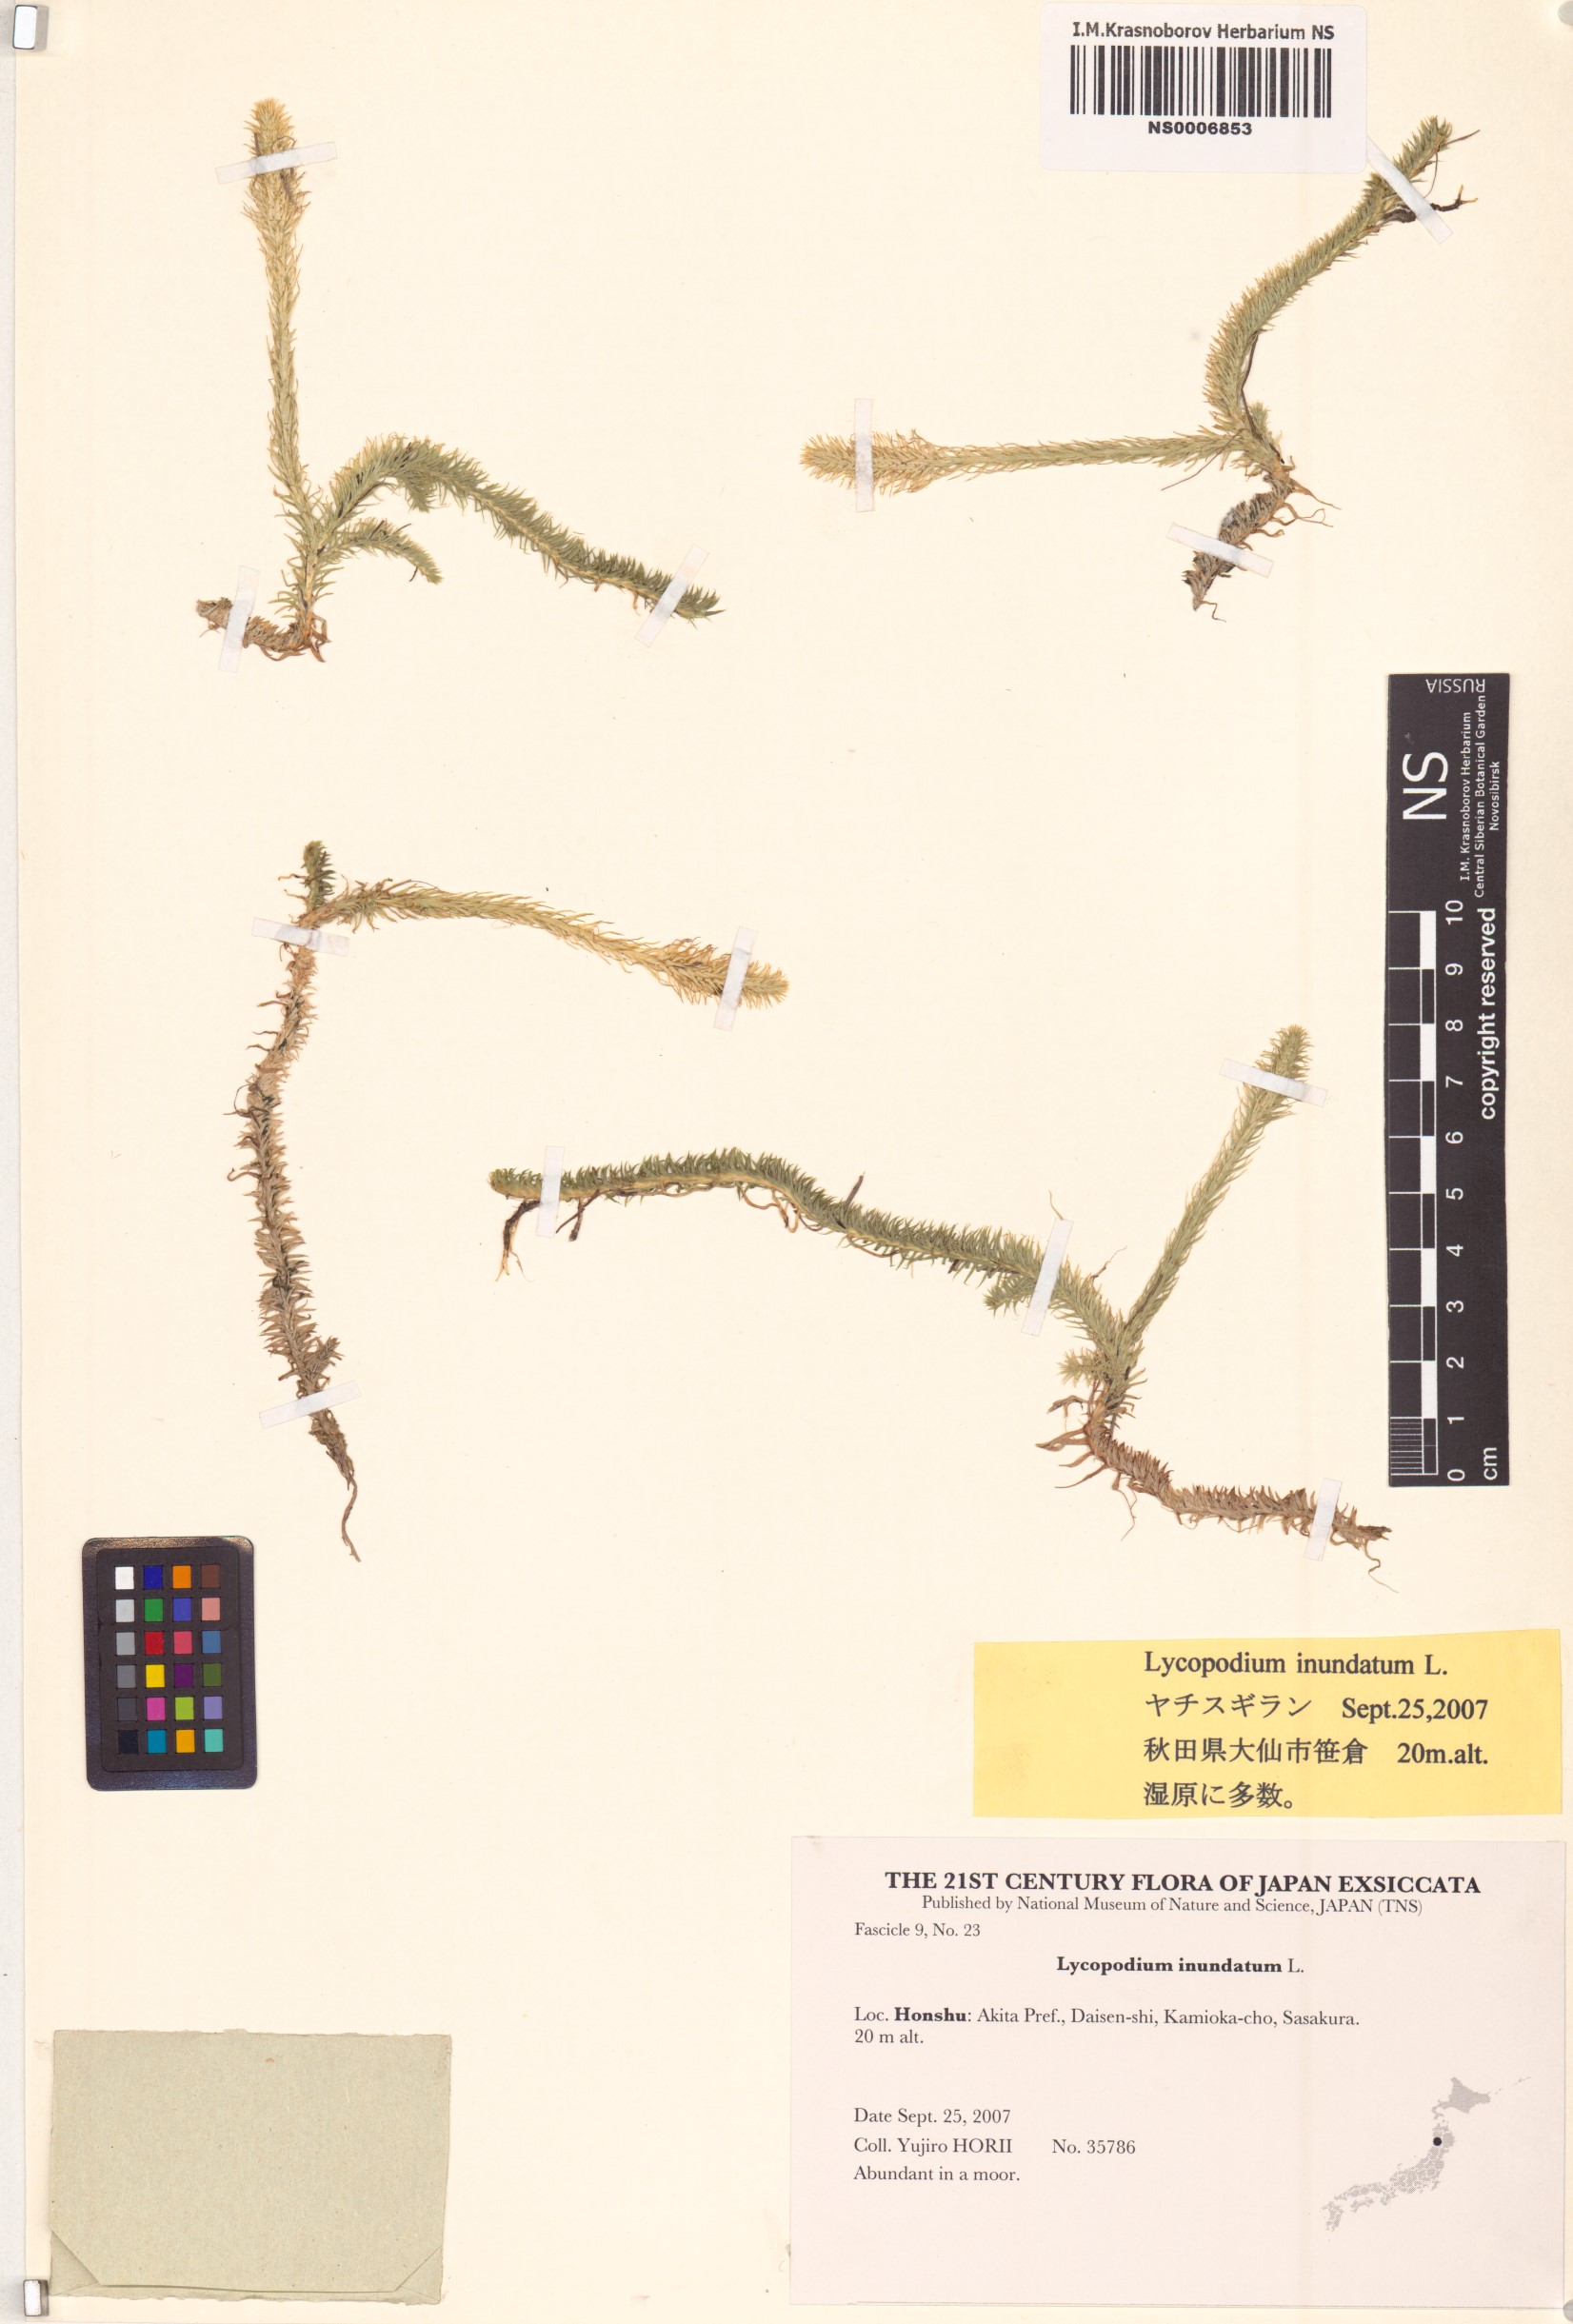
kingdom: Plantae
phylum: Tracheophyta
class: Lycopodiopsida
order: Lycopodiales
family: Lycopodiaceae
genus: Lycopodiella
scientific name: Lycopodiella inundata
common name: Marsh clubmoss
